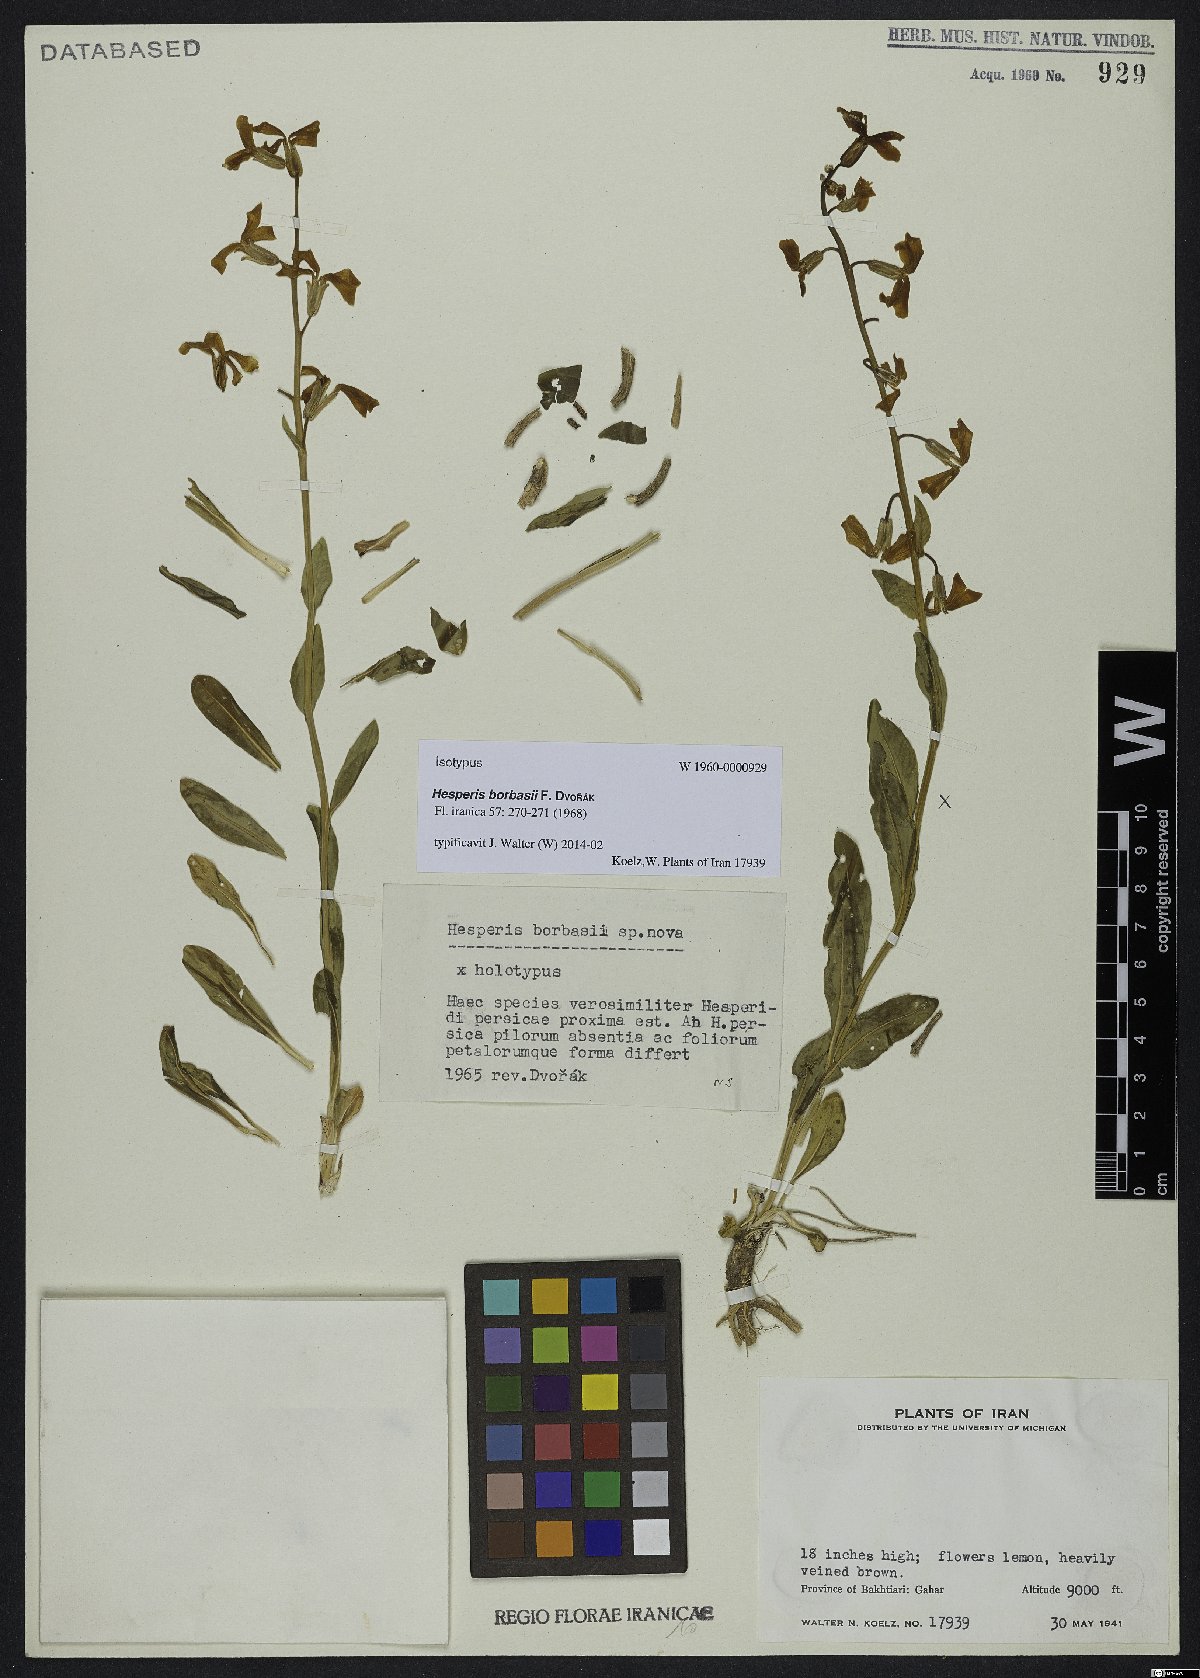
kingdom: Plantae
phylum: Tracheophyta
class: Magnoliopsida
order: Brassicales
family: Brassicaceae
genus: Hesperis
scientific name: Hesperis borbasii
